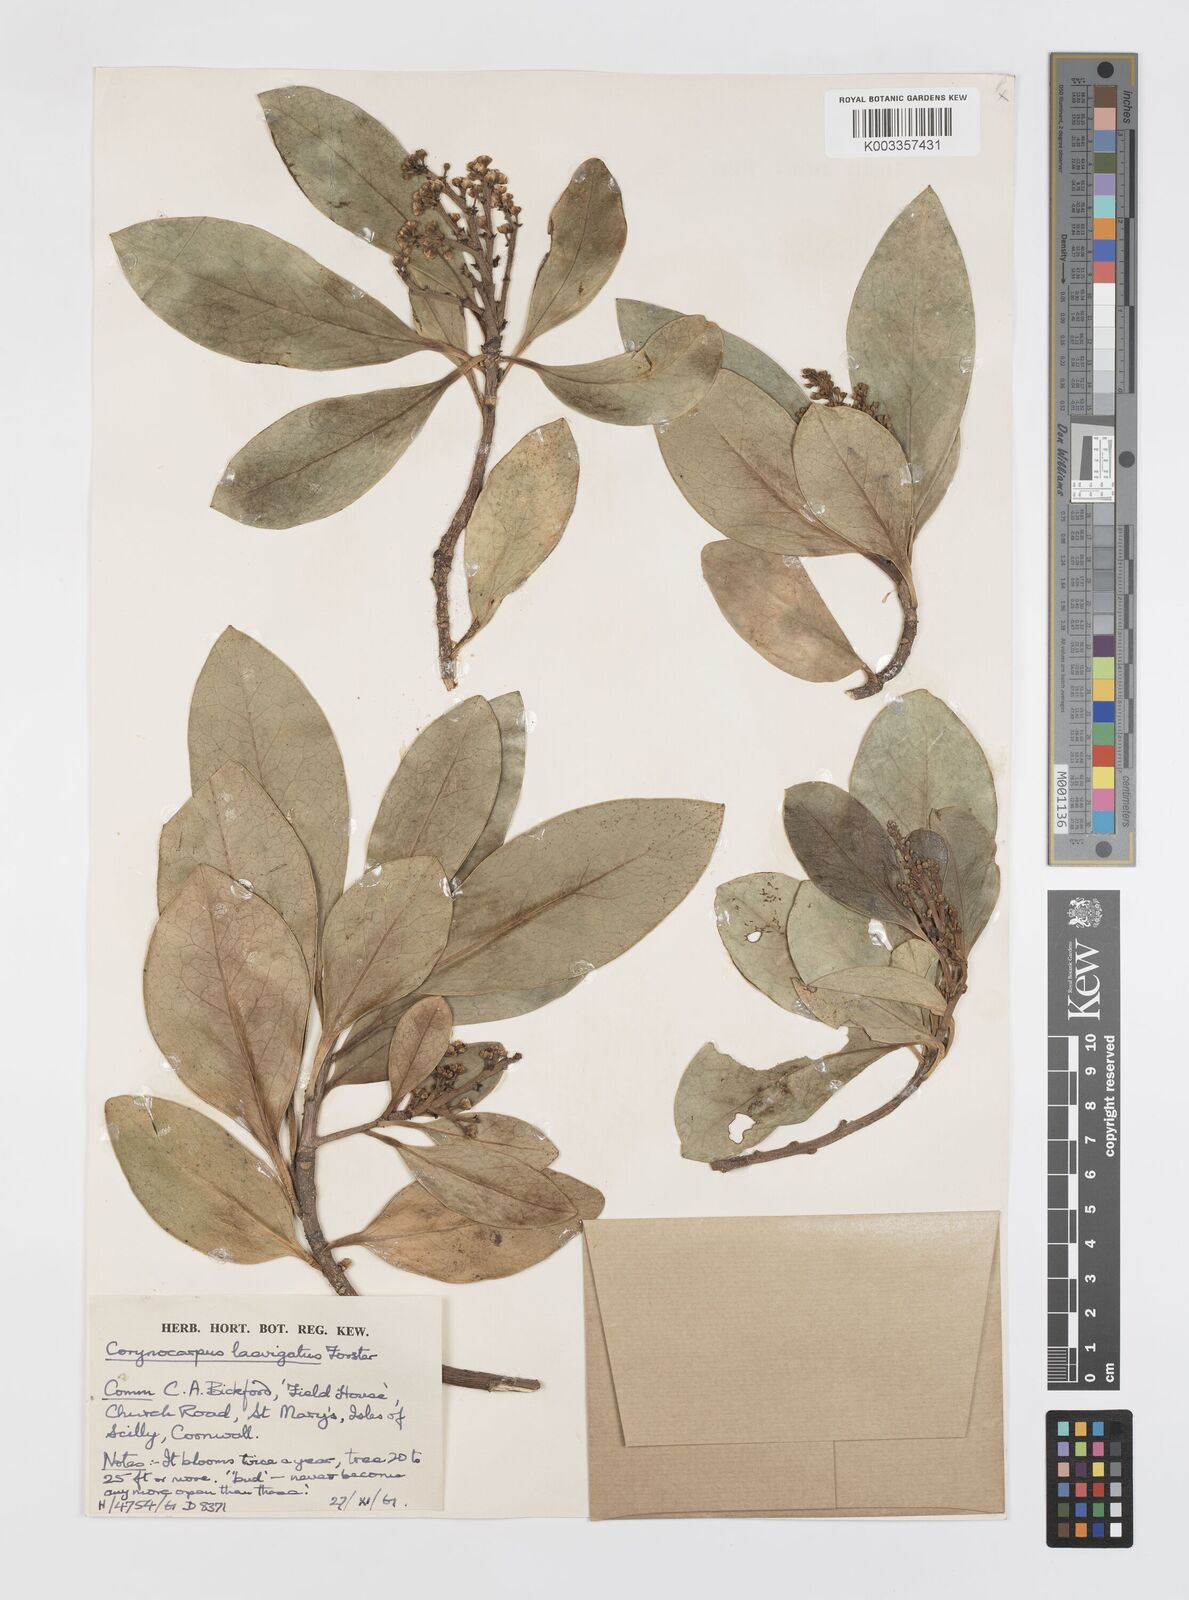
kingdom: Plantae
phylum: Tracheophyta
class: Magnoliopsida
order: Cucurbitales
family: Corynocarpaceae
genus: Corynocarpus
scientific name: Corynocarpus laevigatus
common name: New zealand laurel
